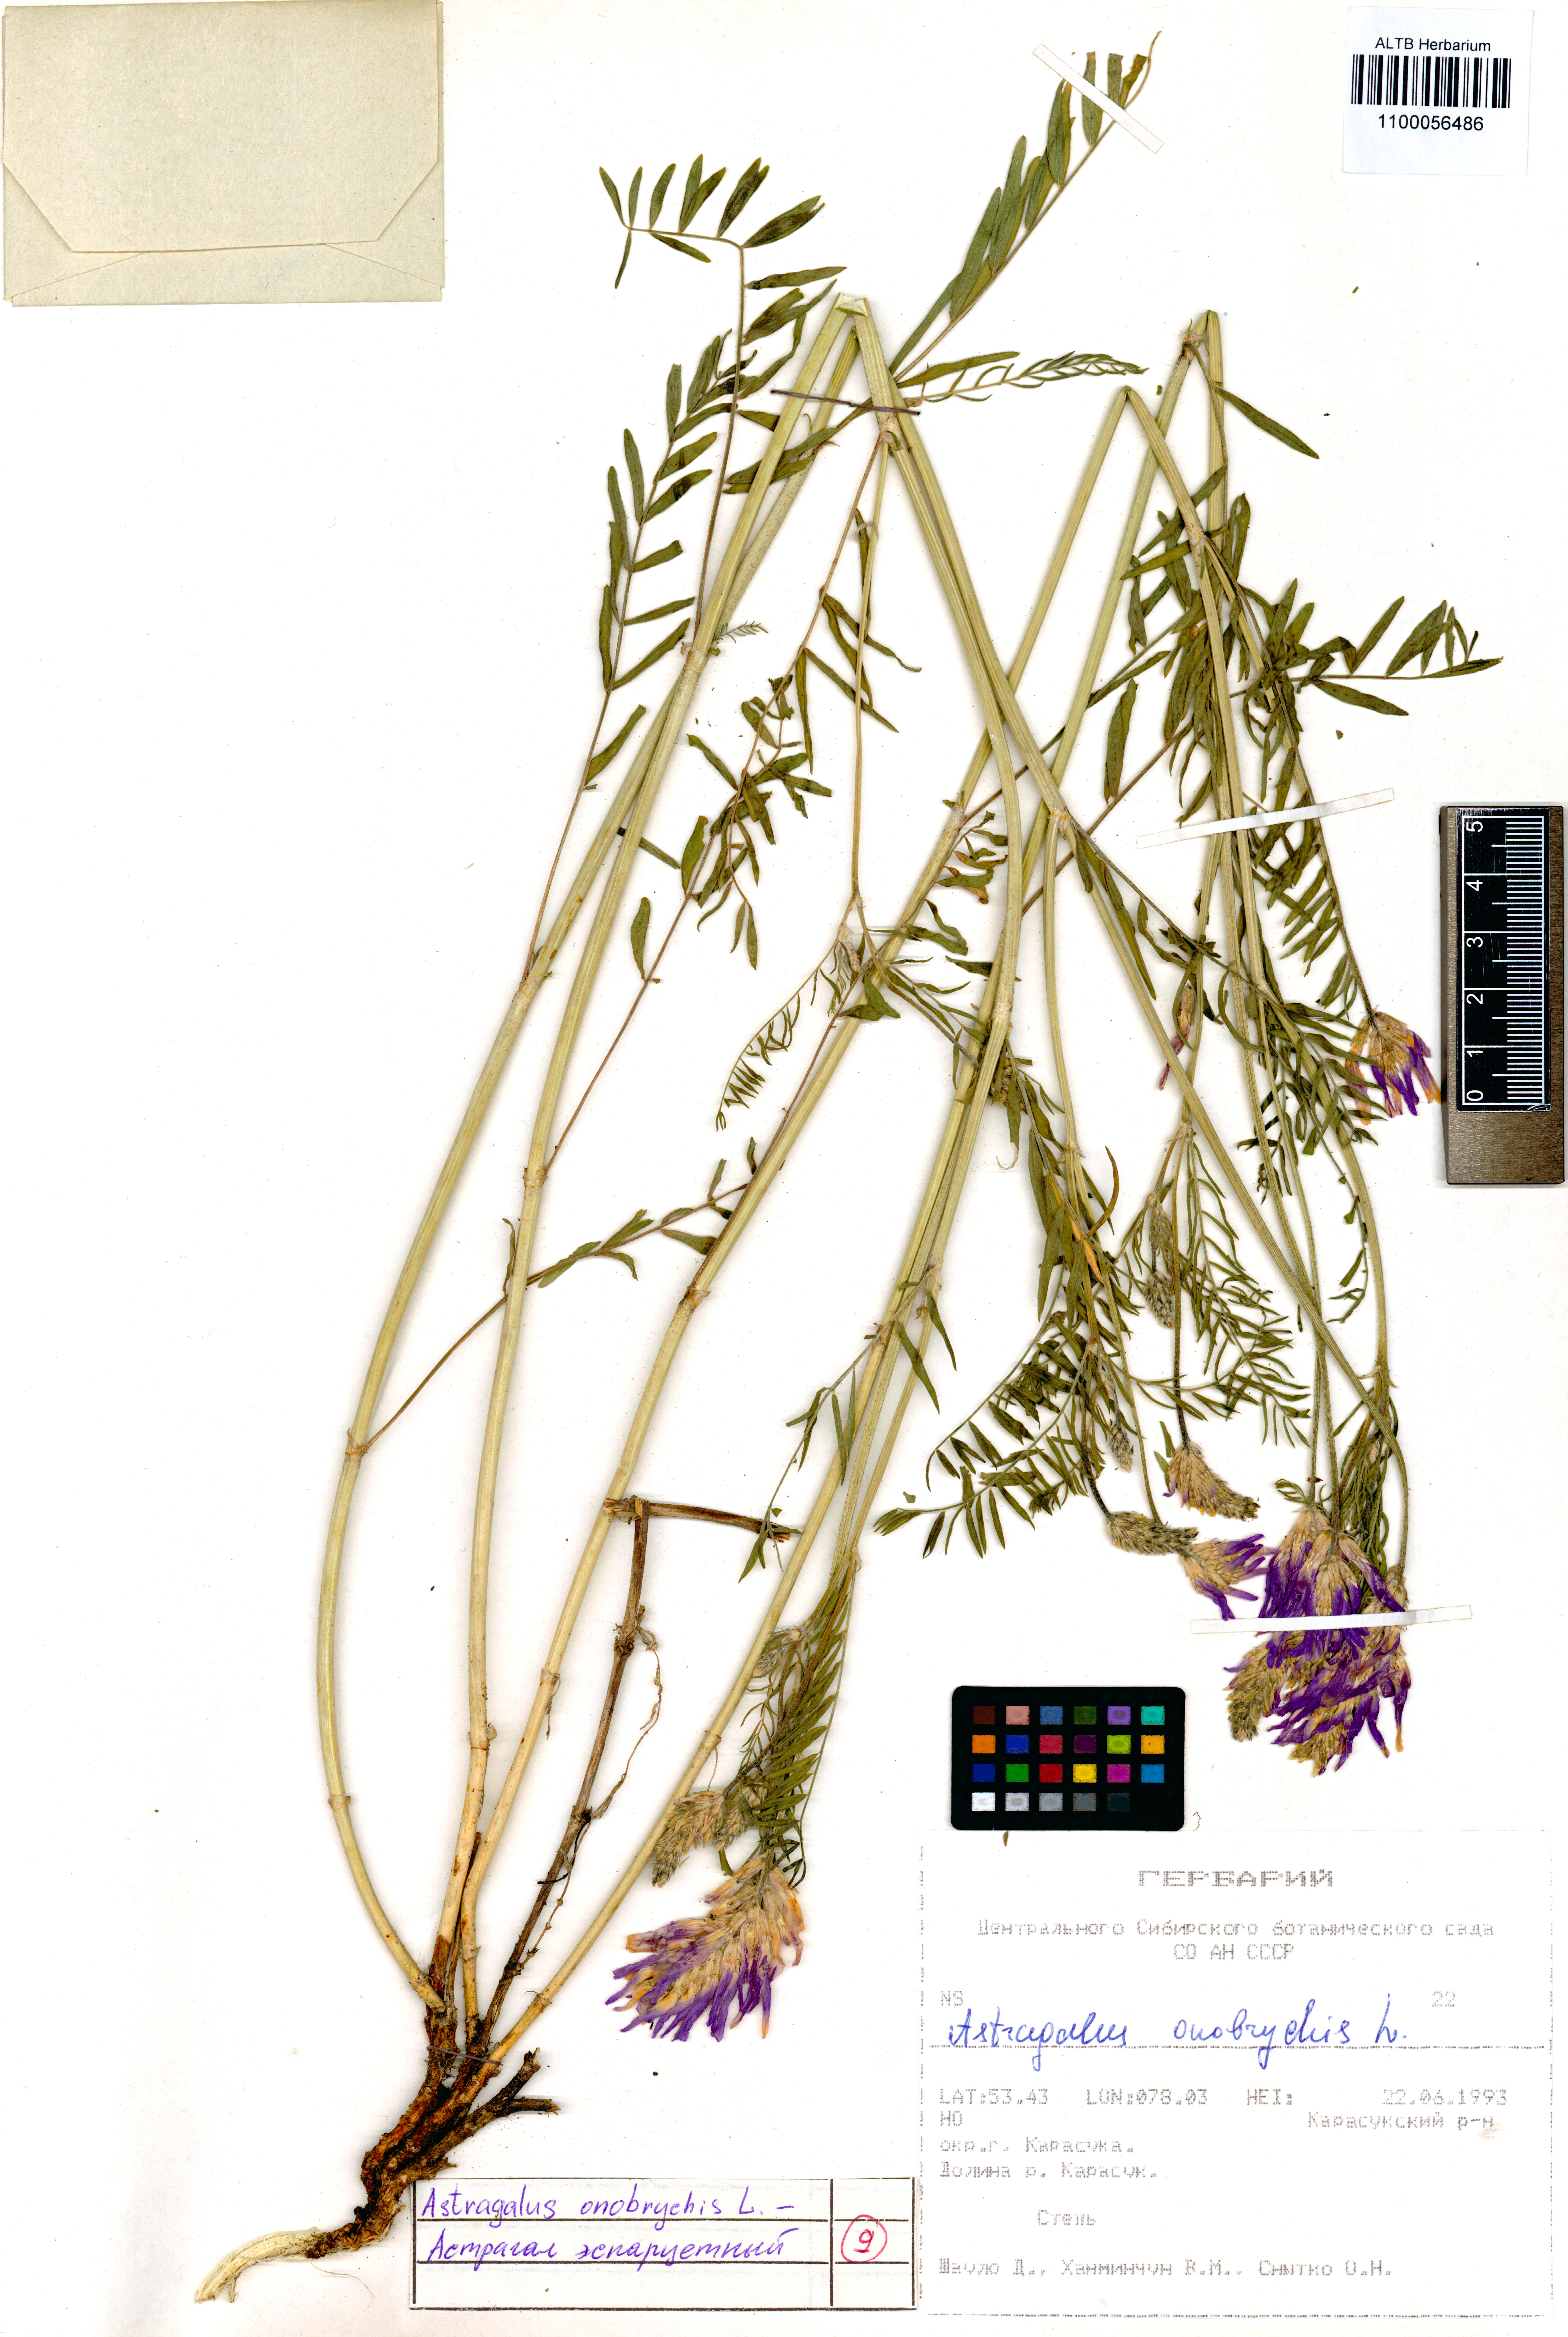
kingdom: Plantae
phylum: Tracheophyta
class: Magnoliopsida
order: Fabales
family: Fabaceae
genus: Astragalus
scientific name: Astragalus onobrychis
